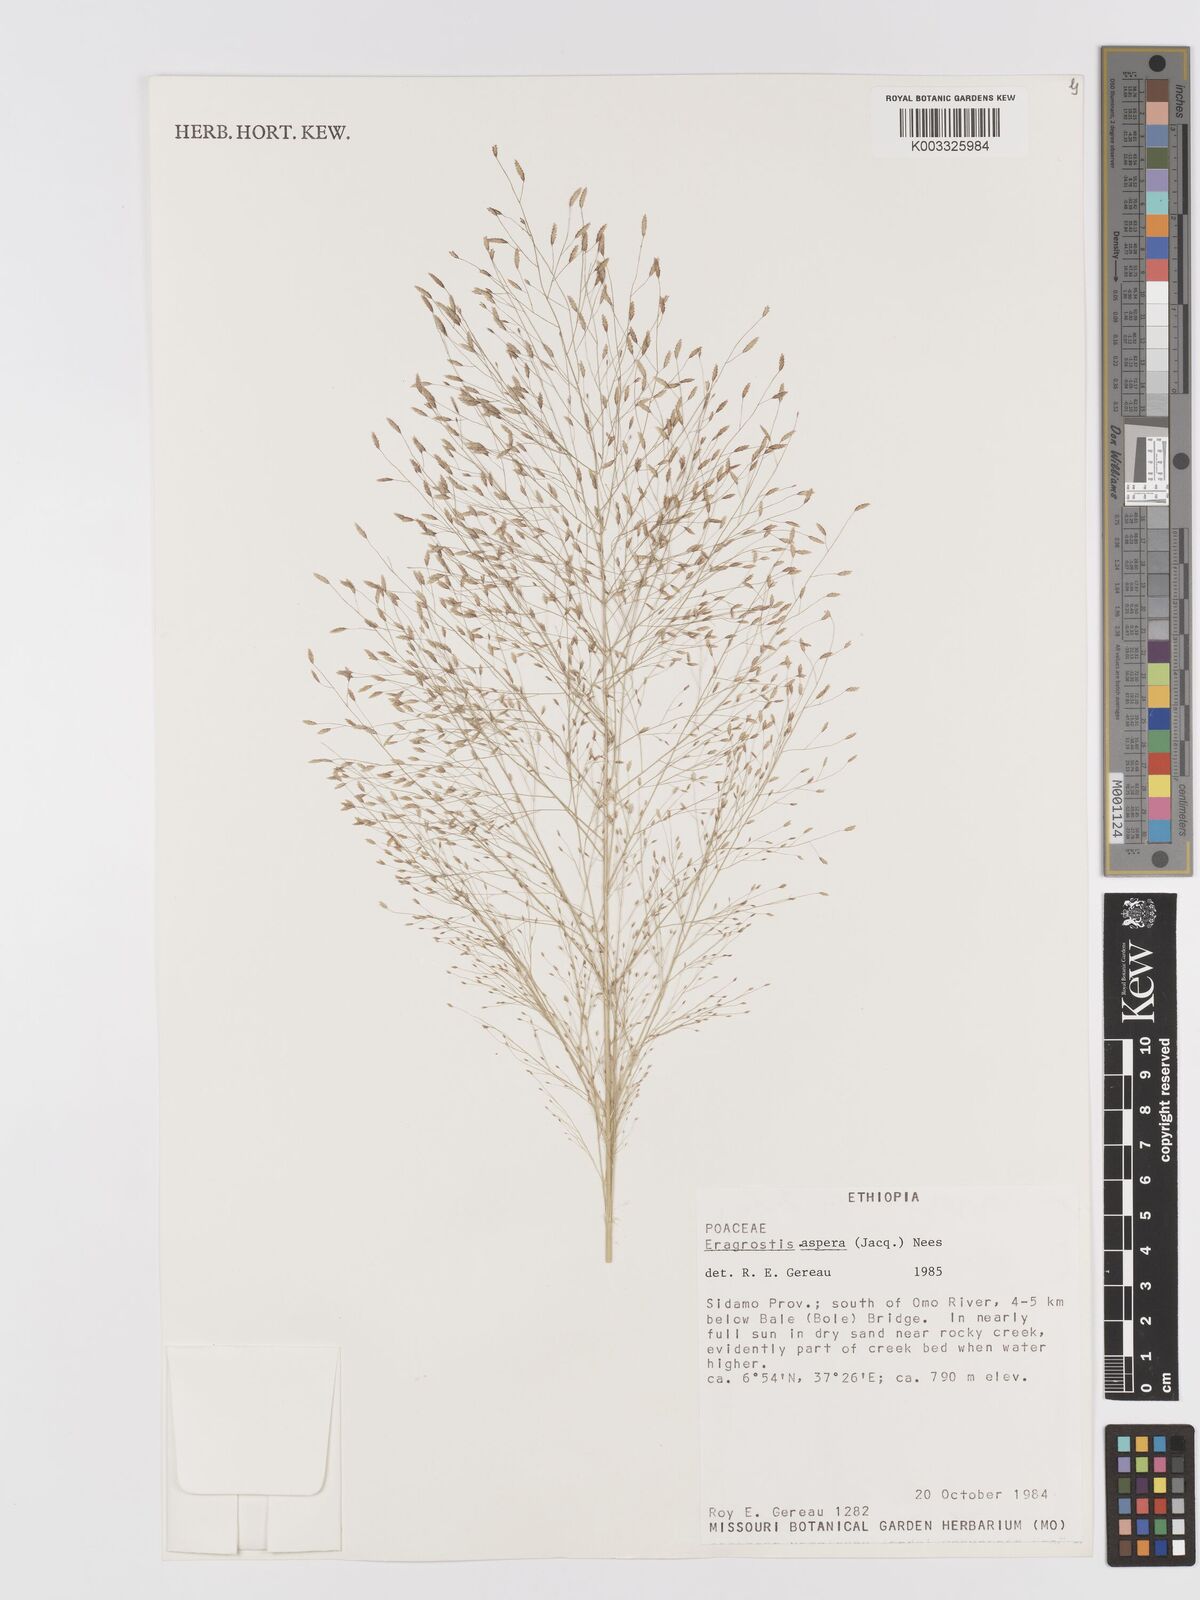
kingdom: Plantae
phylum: Tracheophyta
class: Liliopsida
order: Poales
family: Poaceae
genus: Eragrostis
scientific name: Eragrostis aspera
